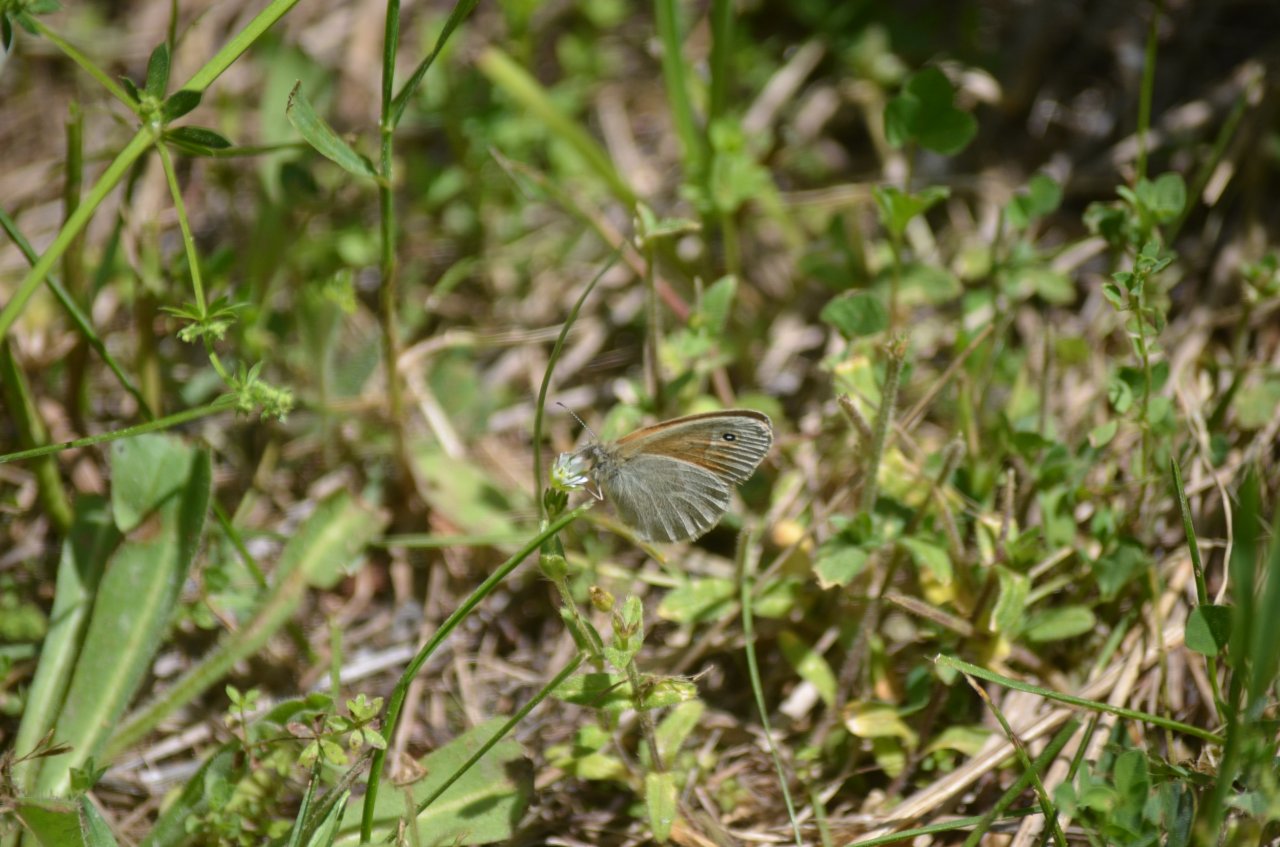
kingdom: Animalia
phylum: Arthropoda
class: Insecta
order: Lepidoptera
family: Nymphalidae
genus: Coenonympha
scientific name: Coenonympha tullia
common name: Large Heath
